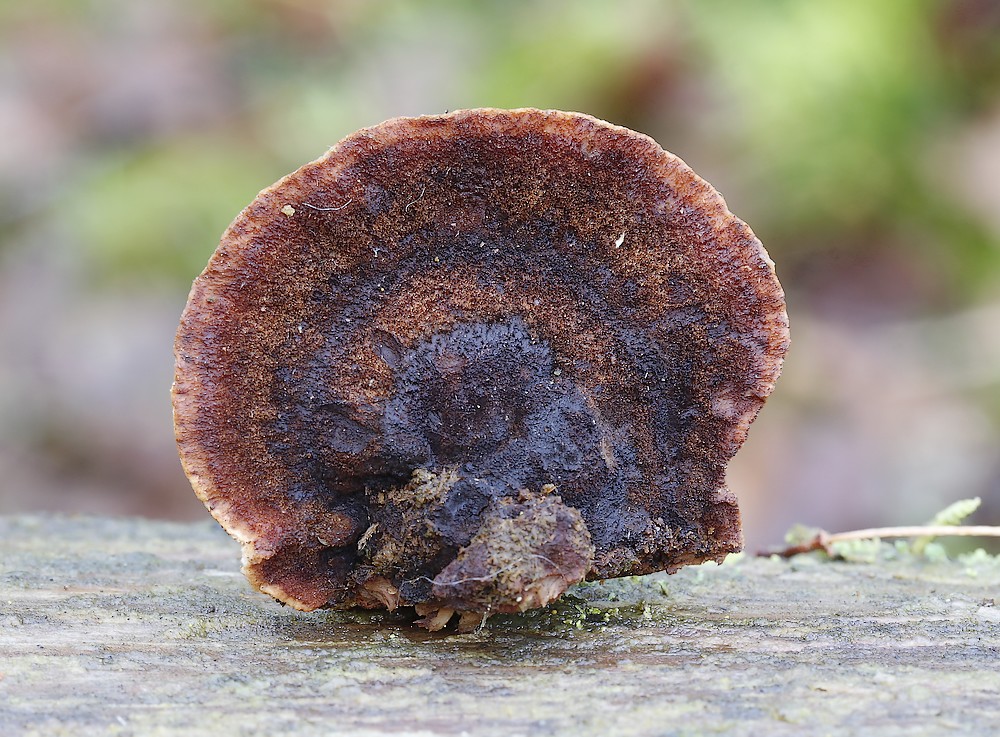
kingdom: Fungi
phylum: Basidiomycota
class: Agaricomycetes
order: Polyporales
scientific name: Polyporales
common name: poresvampordenen
